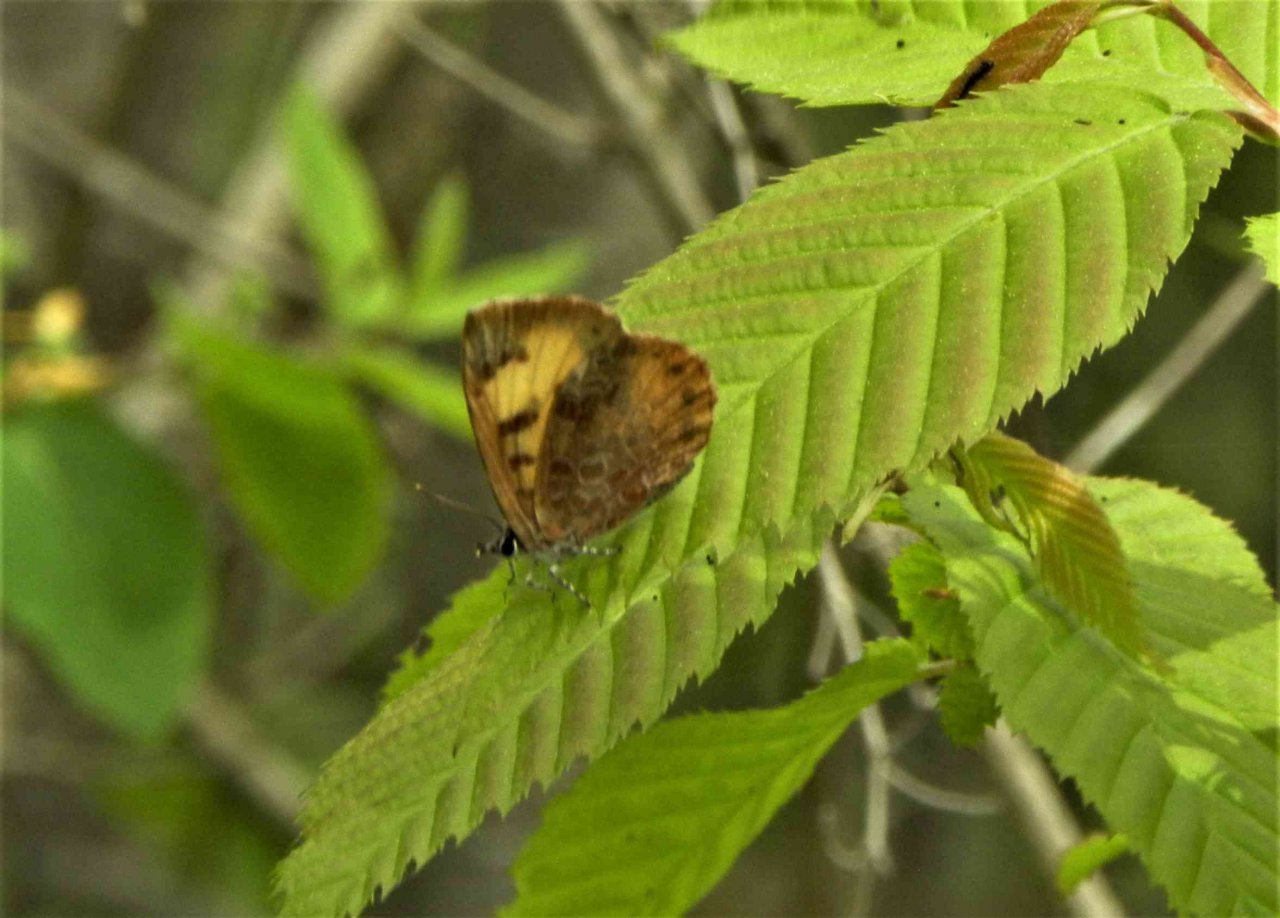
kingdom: Animalia
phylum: Arthropoda
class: Insecta
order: Lepidoptera
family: Lycaenidae
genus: Feniseca
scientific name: Feniseca tarquinius
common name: Harvester
